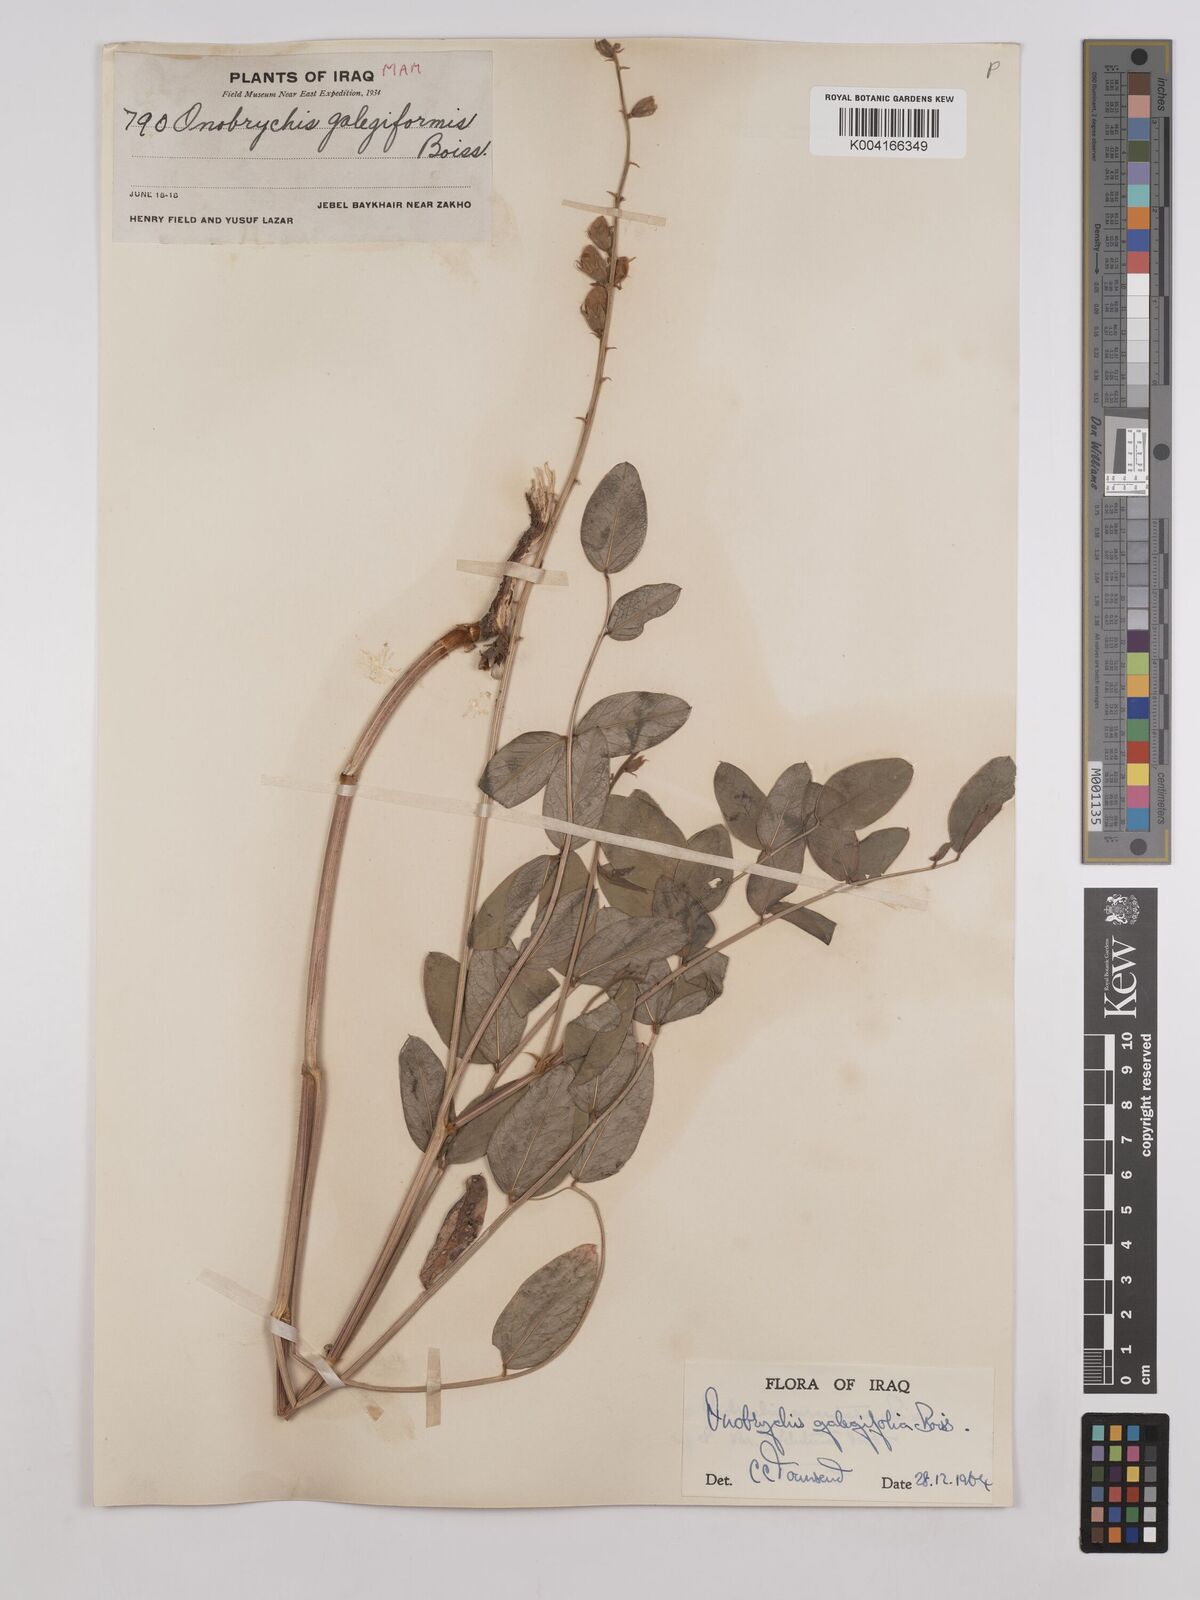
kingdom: Plantae
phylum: Tracheophyta
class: Magnoliopsida
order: Fabales
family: Fabaceae
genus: Onobrychis
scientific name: Onobrychis galegifolia
